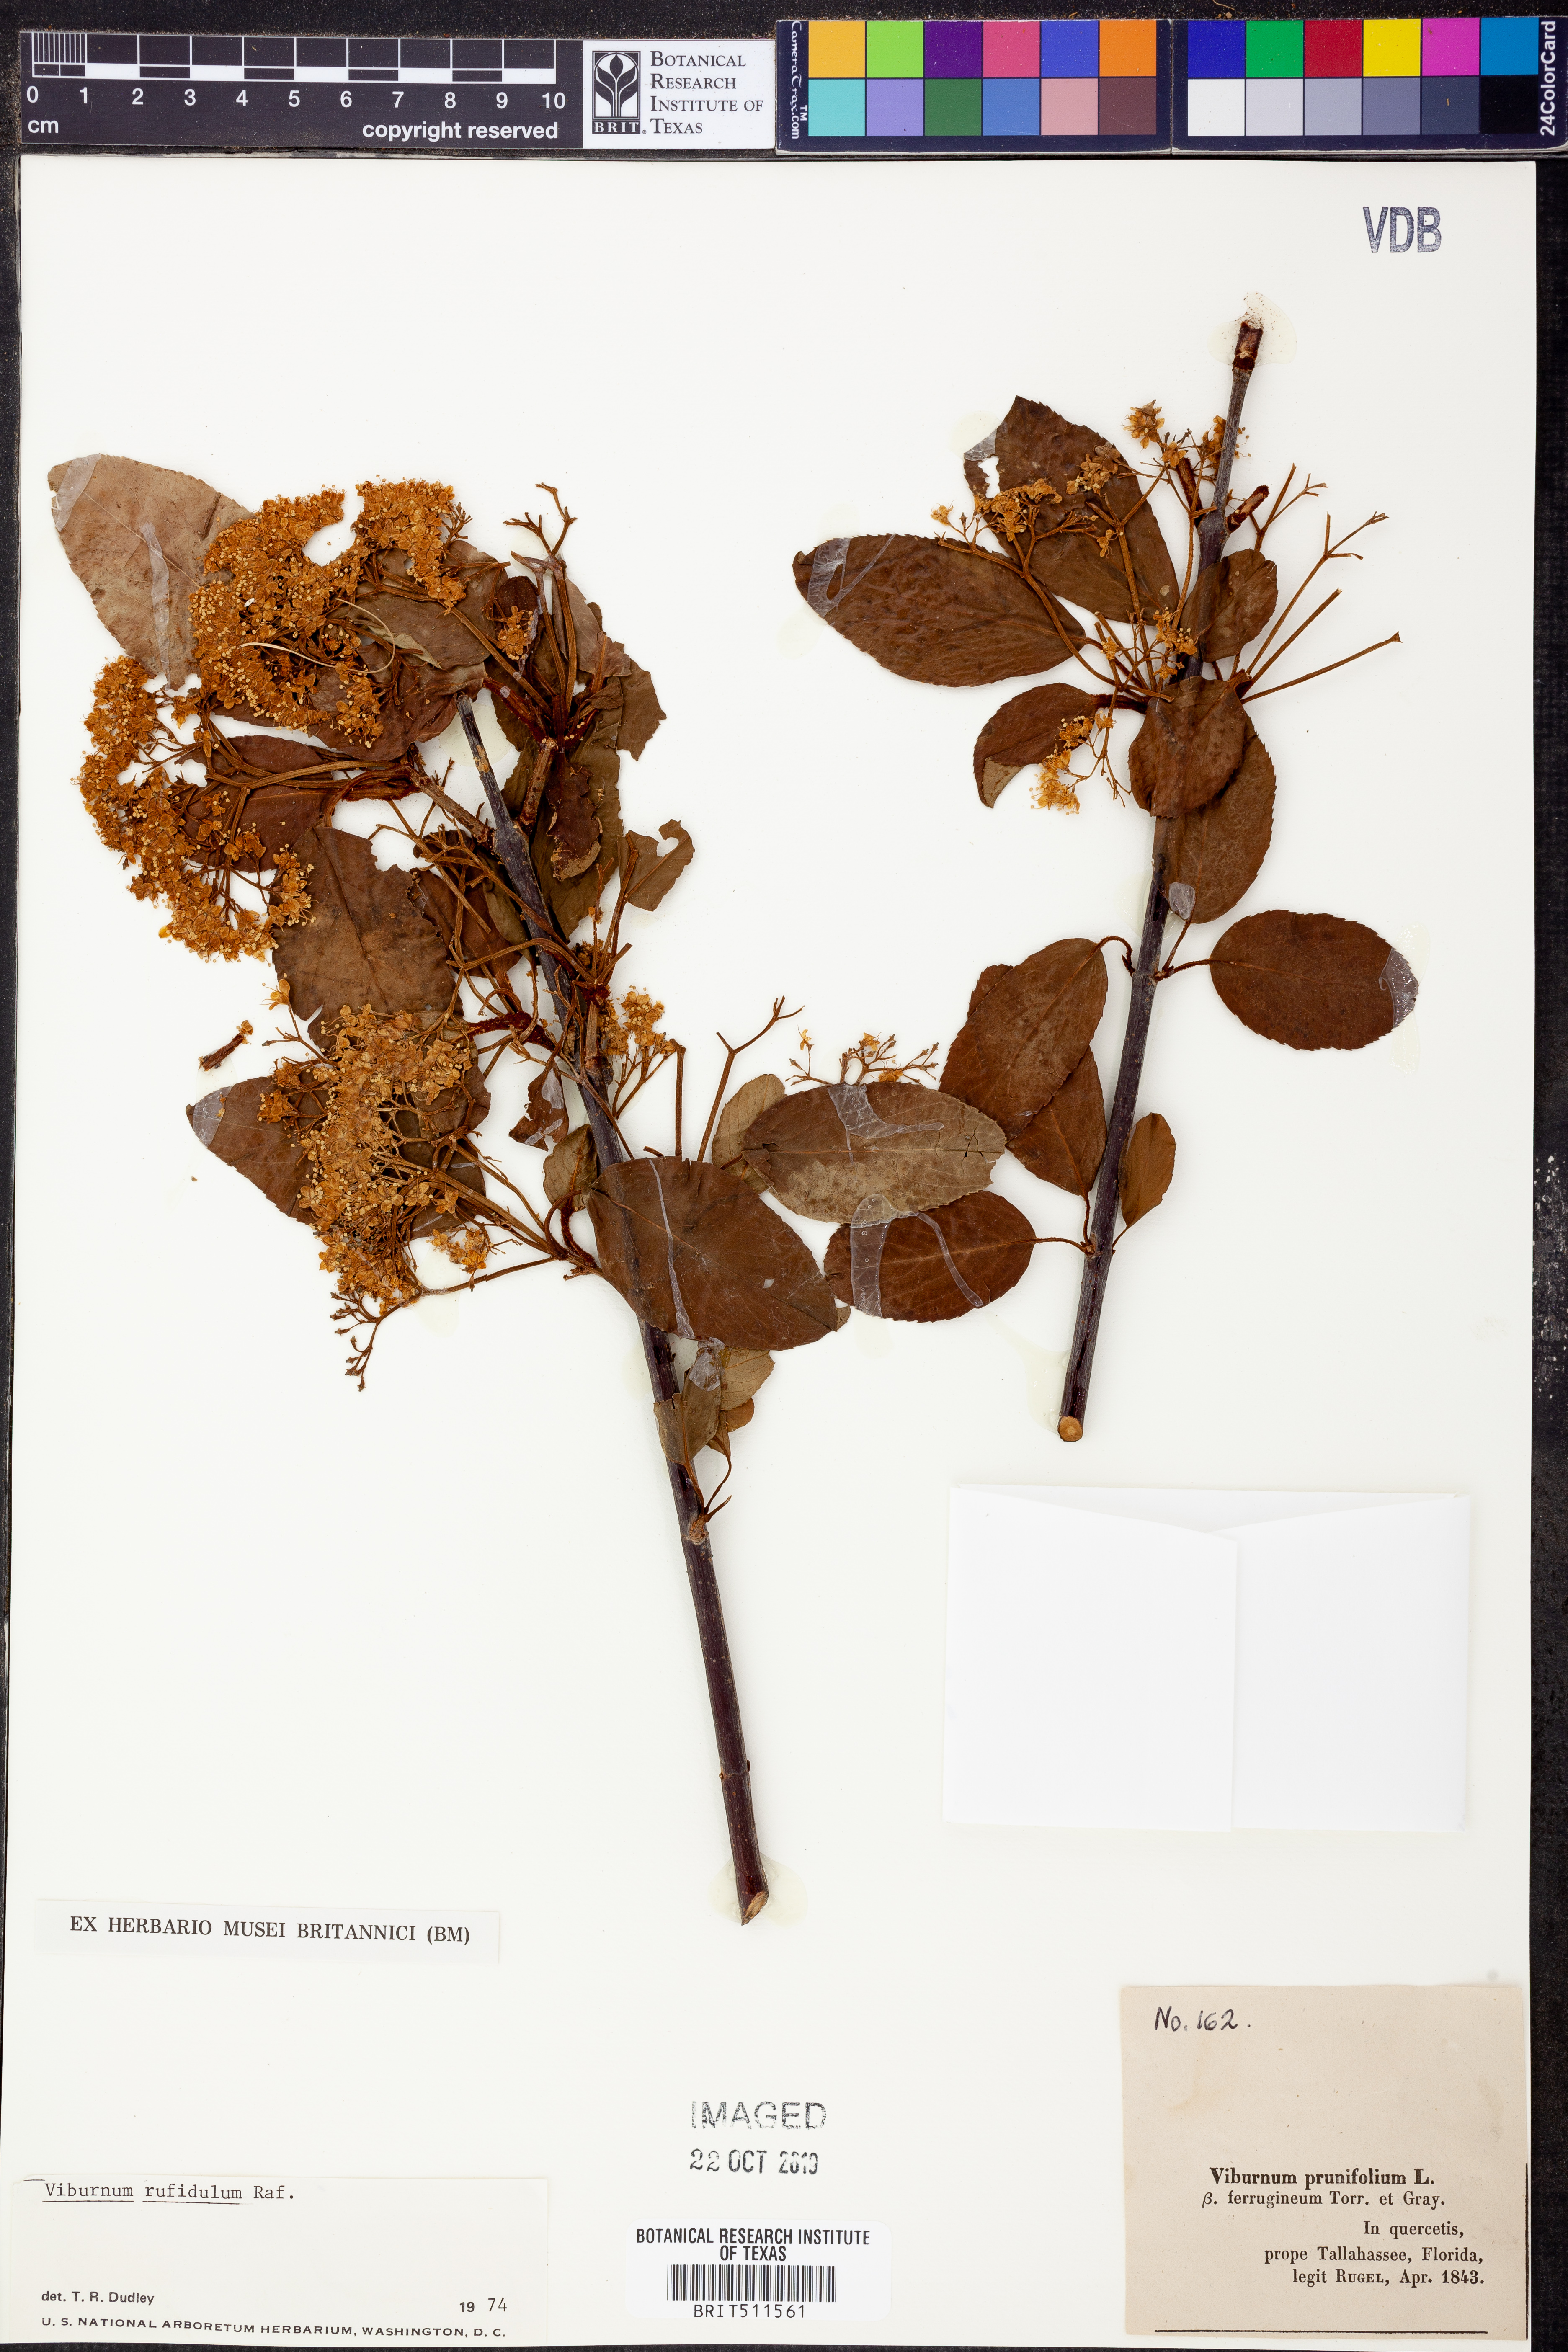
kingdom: Plantae
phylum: Tracheophyta
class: Magnoliopsida
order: Dipsacales
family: Viburnaceae
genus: Viburnum
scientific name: Viburnum rufidulum
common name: Blue haw
